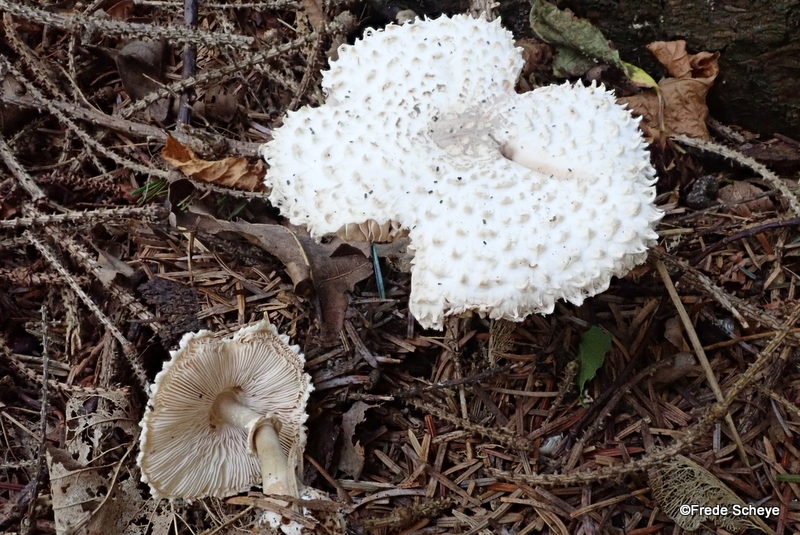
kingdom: Fungi
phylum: Basidiomycota
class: Agaricomycetes
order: Agaricales
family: Agaricaceae
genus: Leucoagaricus
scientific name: Leucoagaricus nympharum
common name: gran-silkehat
